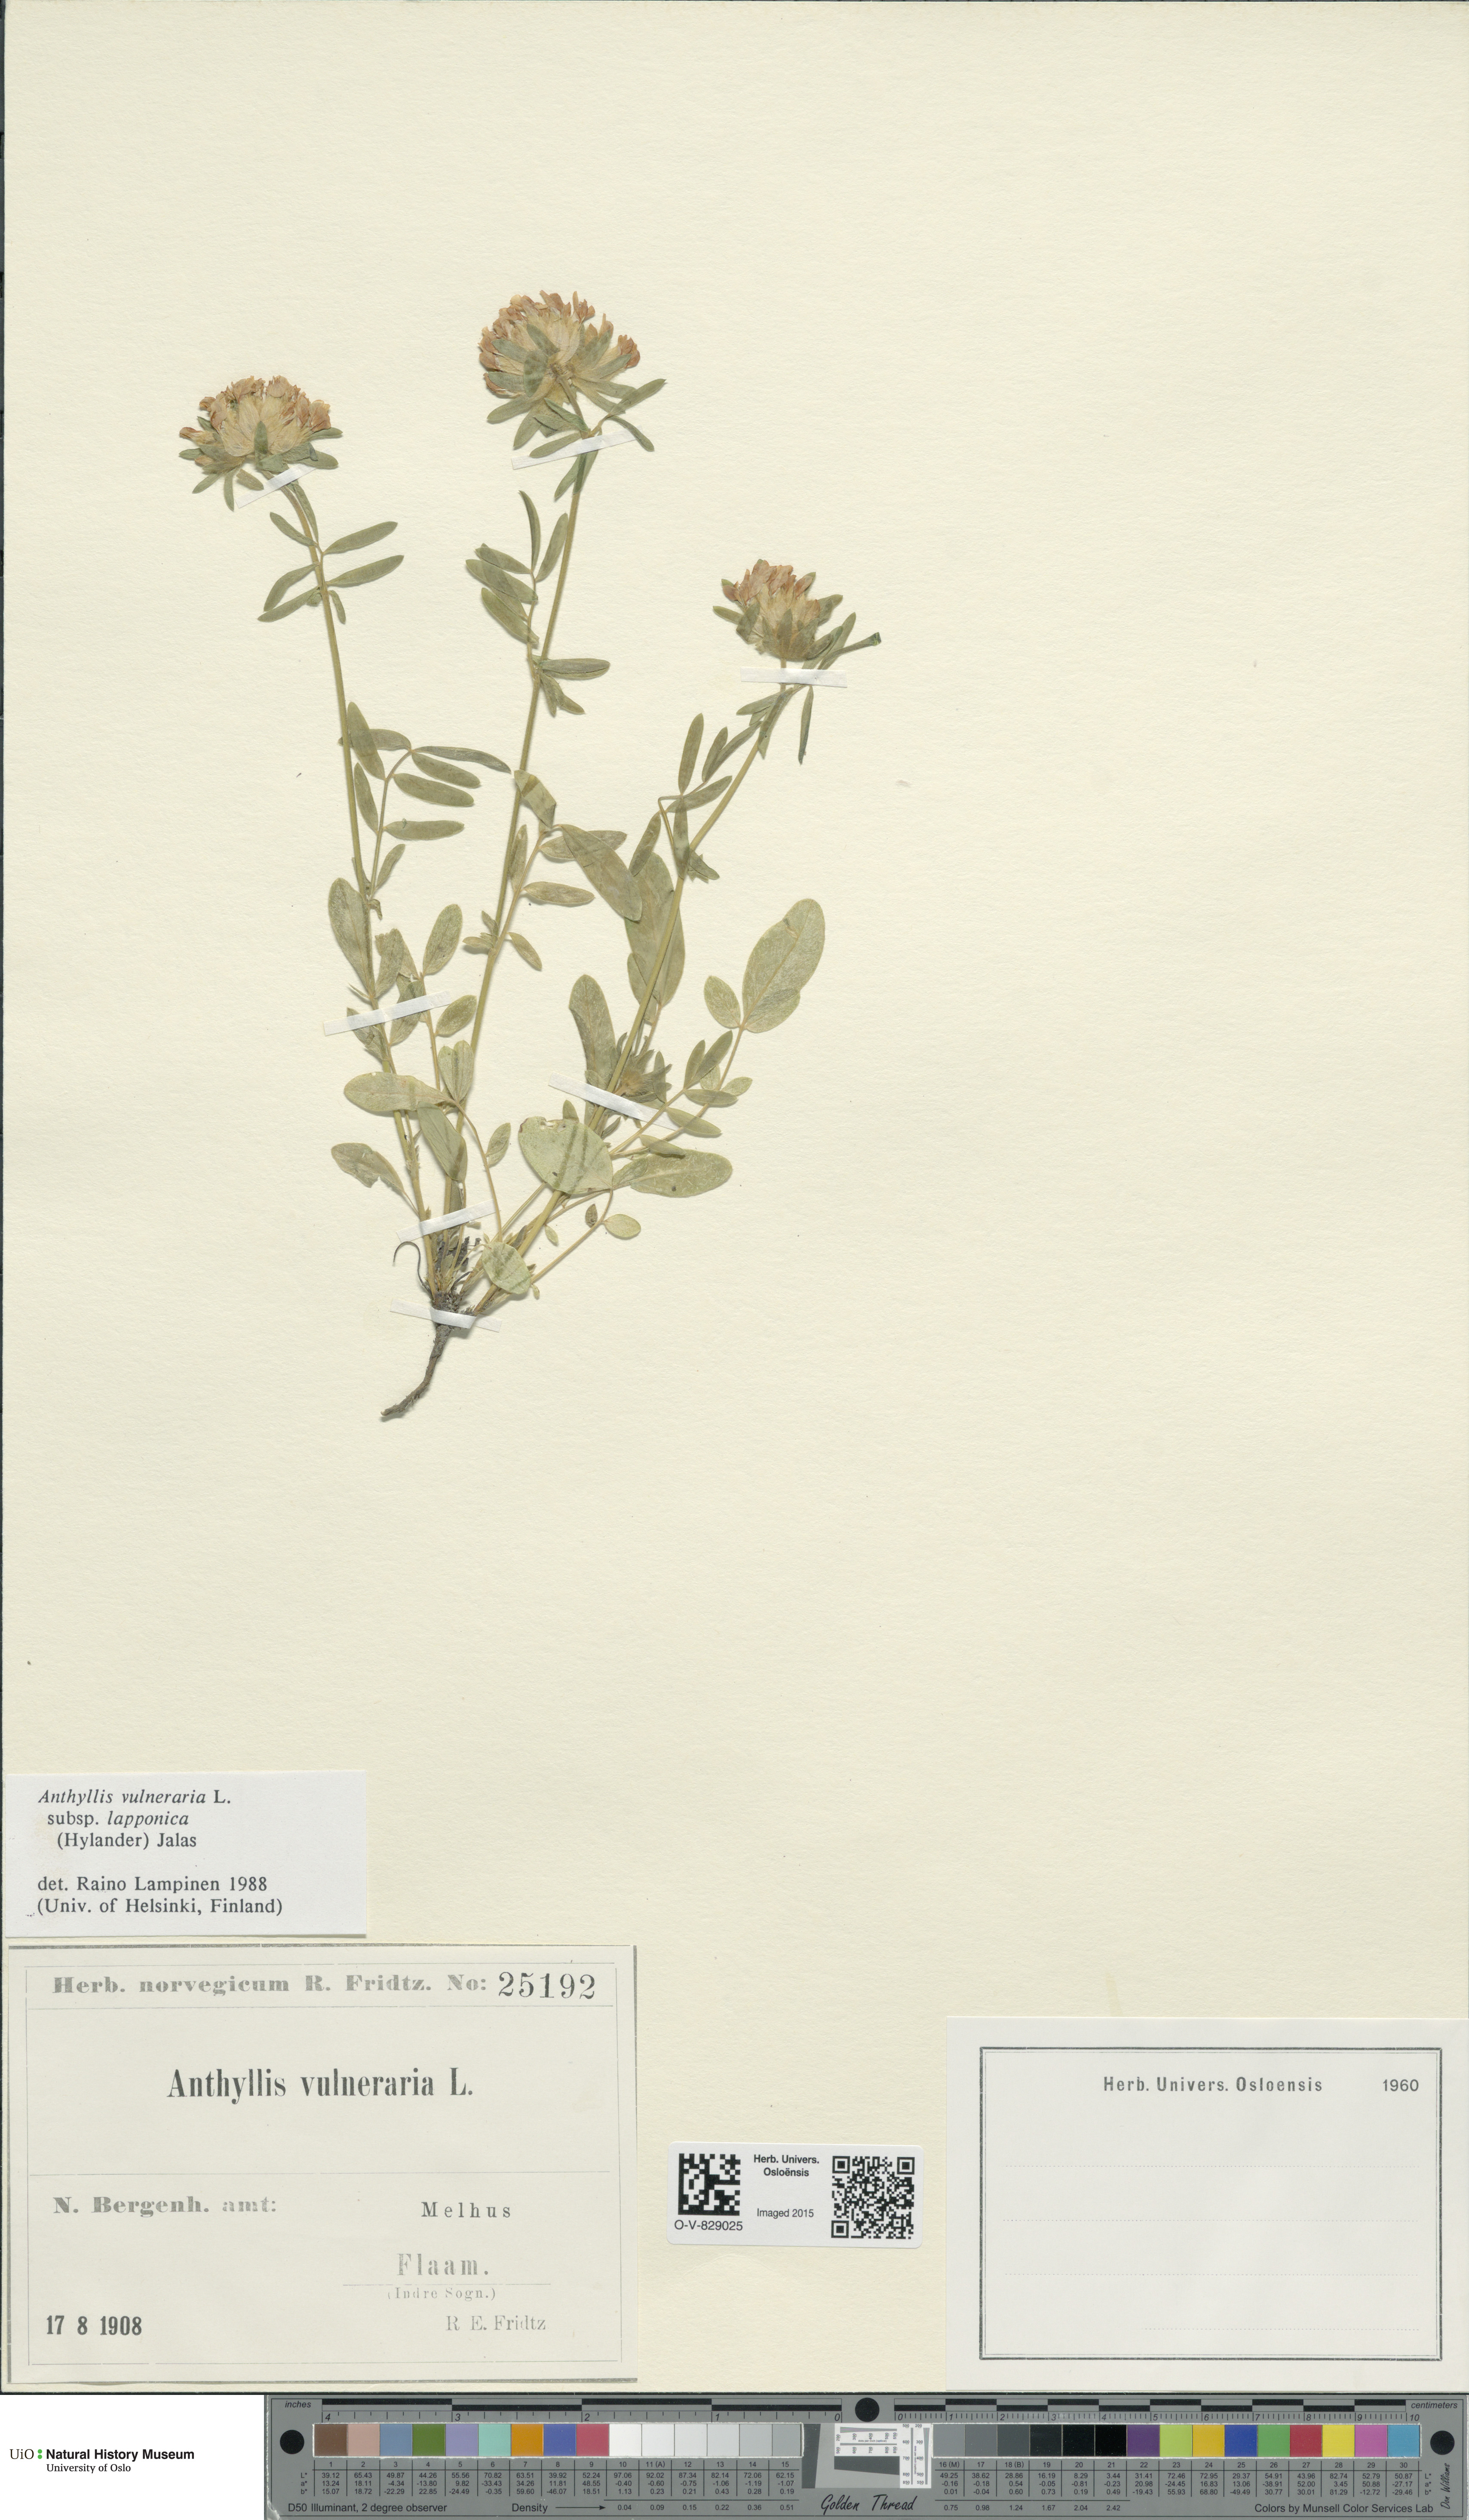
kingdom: Plantae
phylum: Tracheophyta
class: Magnoliopsida
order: Fabales
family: Fabaceae
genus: Anthyllis
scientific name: Anthyllis vulneraria
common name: Kidney vetch
